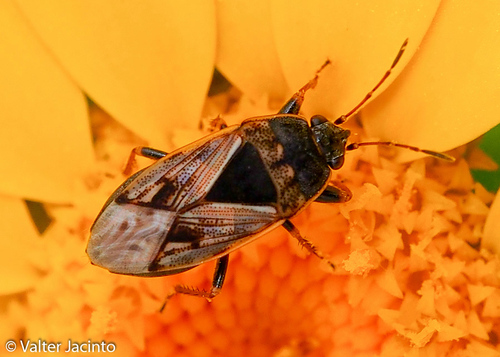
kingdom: Animalia
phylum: Arthropoda
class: Insecta
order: Hemiptera
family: Rhyparochromidae
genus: Trapezonotus
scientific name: Trapezonotus ullrichi
